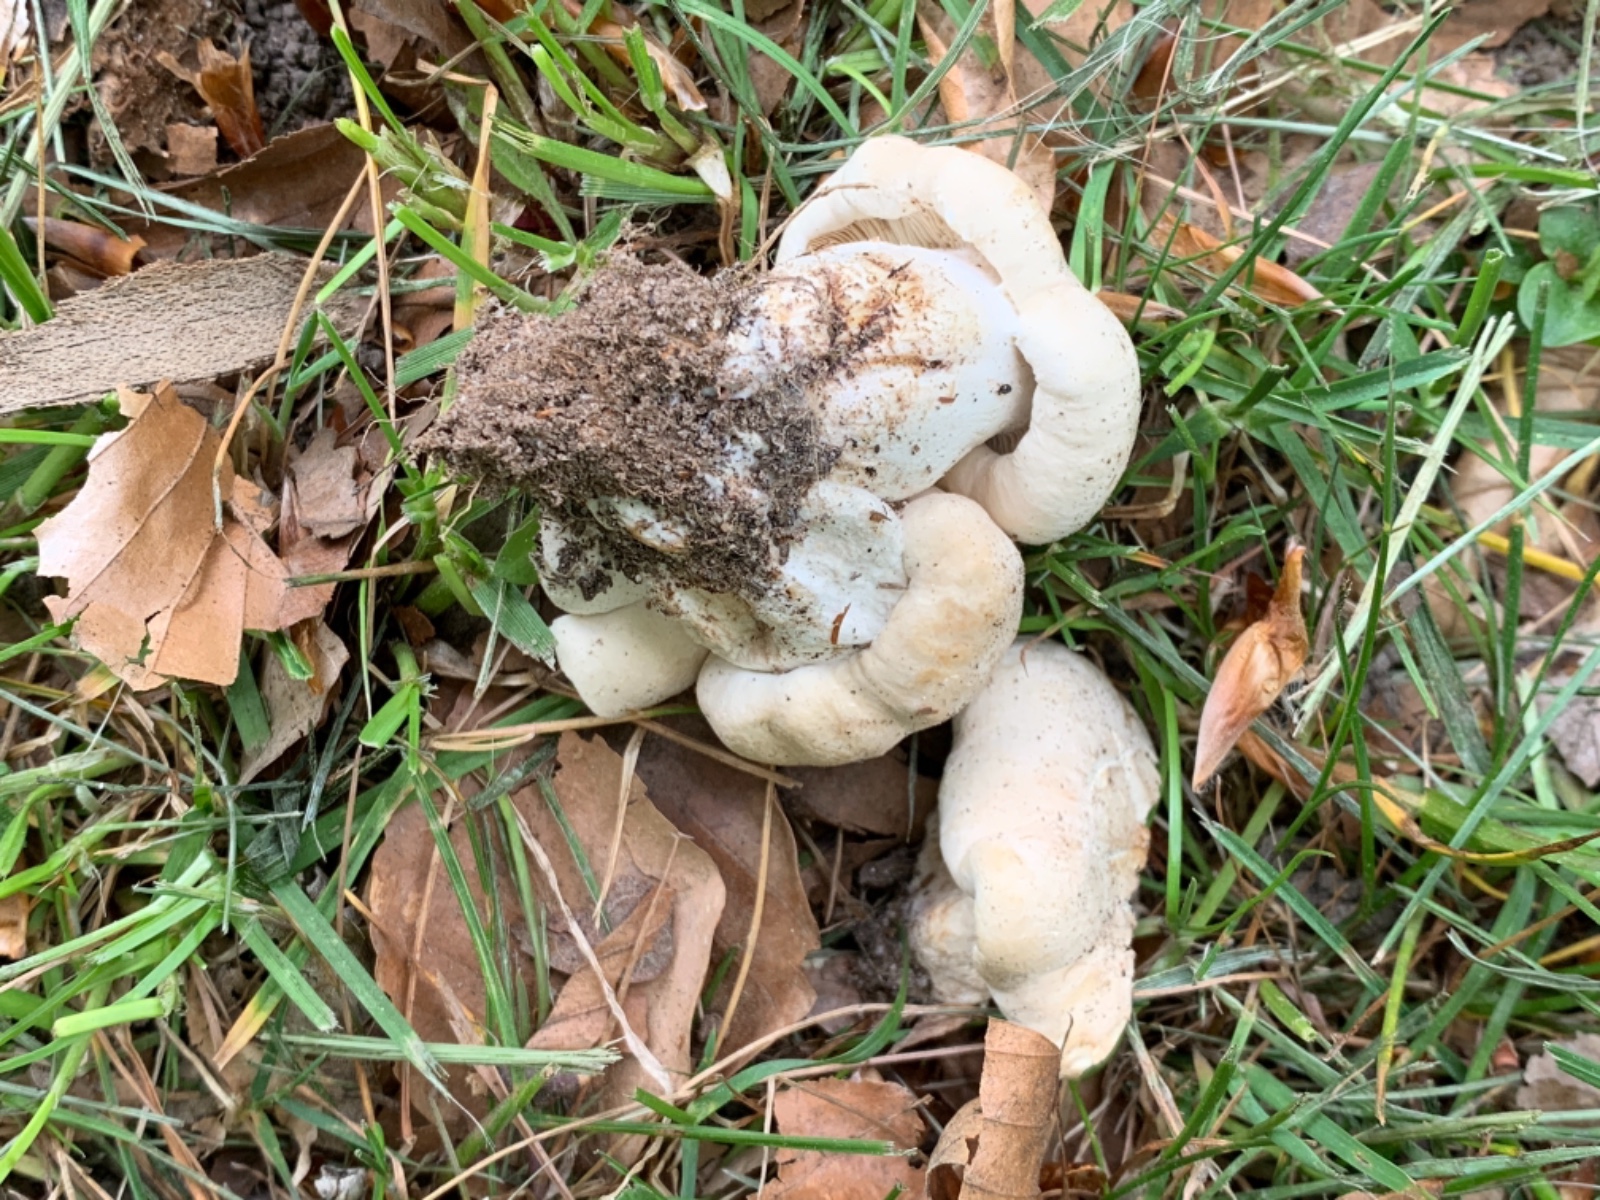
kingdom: Fungi
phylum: Basidiomycota
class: Agaricomycetes
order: Agaricales
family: Lyophyllaceae
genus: Calocybe
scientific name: Calocybe gambosa
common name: vårmusseron
